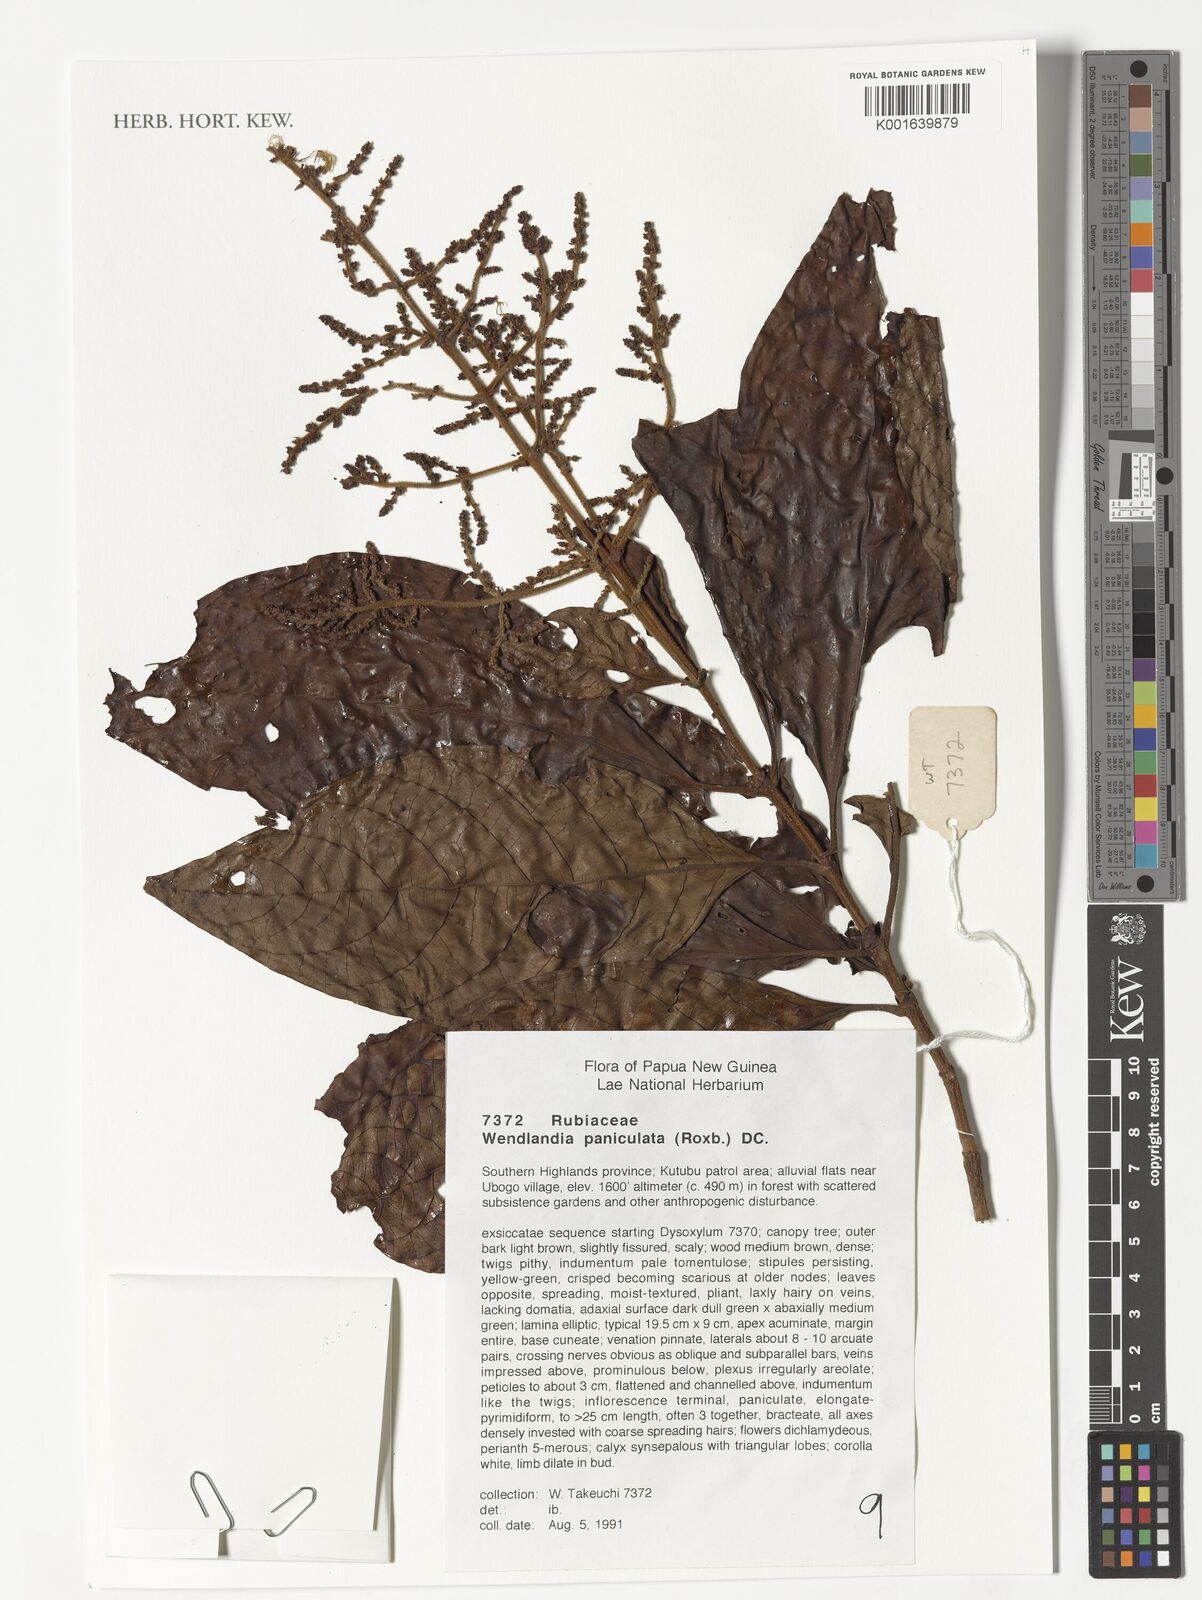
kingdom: Plantae
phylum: Tracheophyta
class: Magnoliopsida
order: Gentianales
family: Rubiaceae
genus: Wendlandia
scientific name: Wendlandia paniculata
